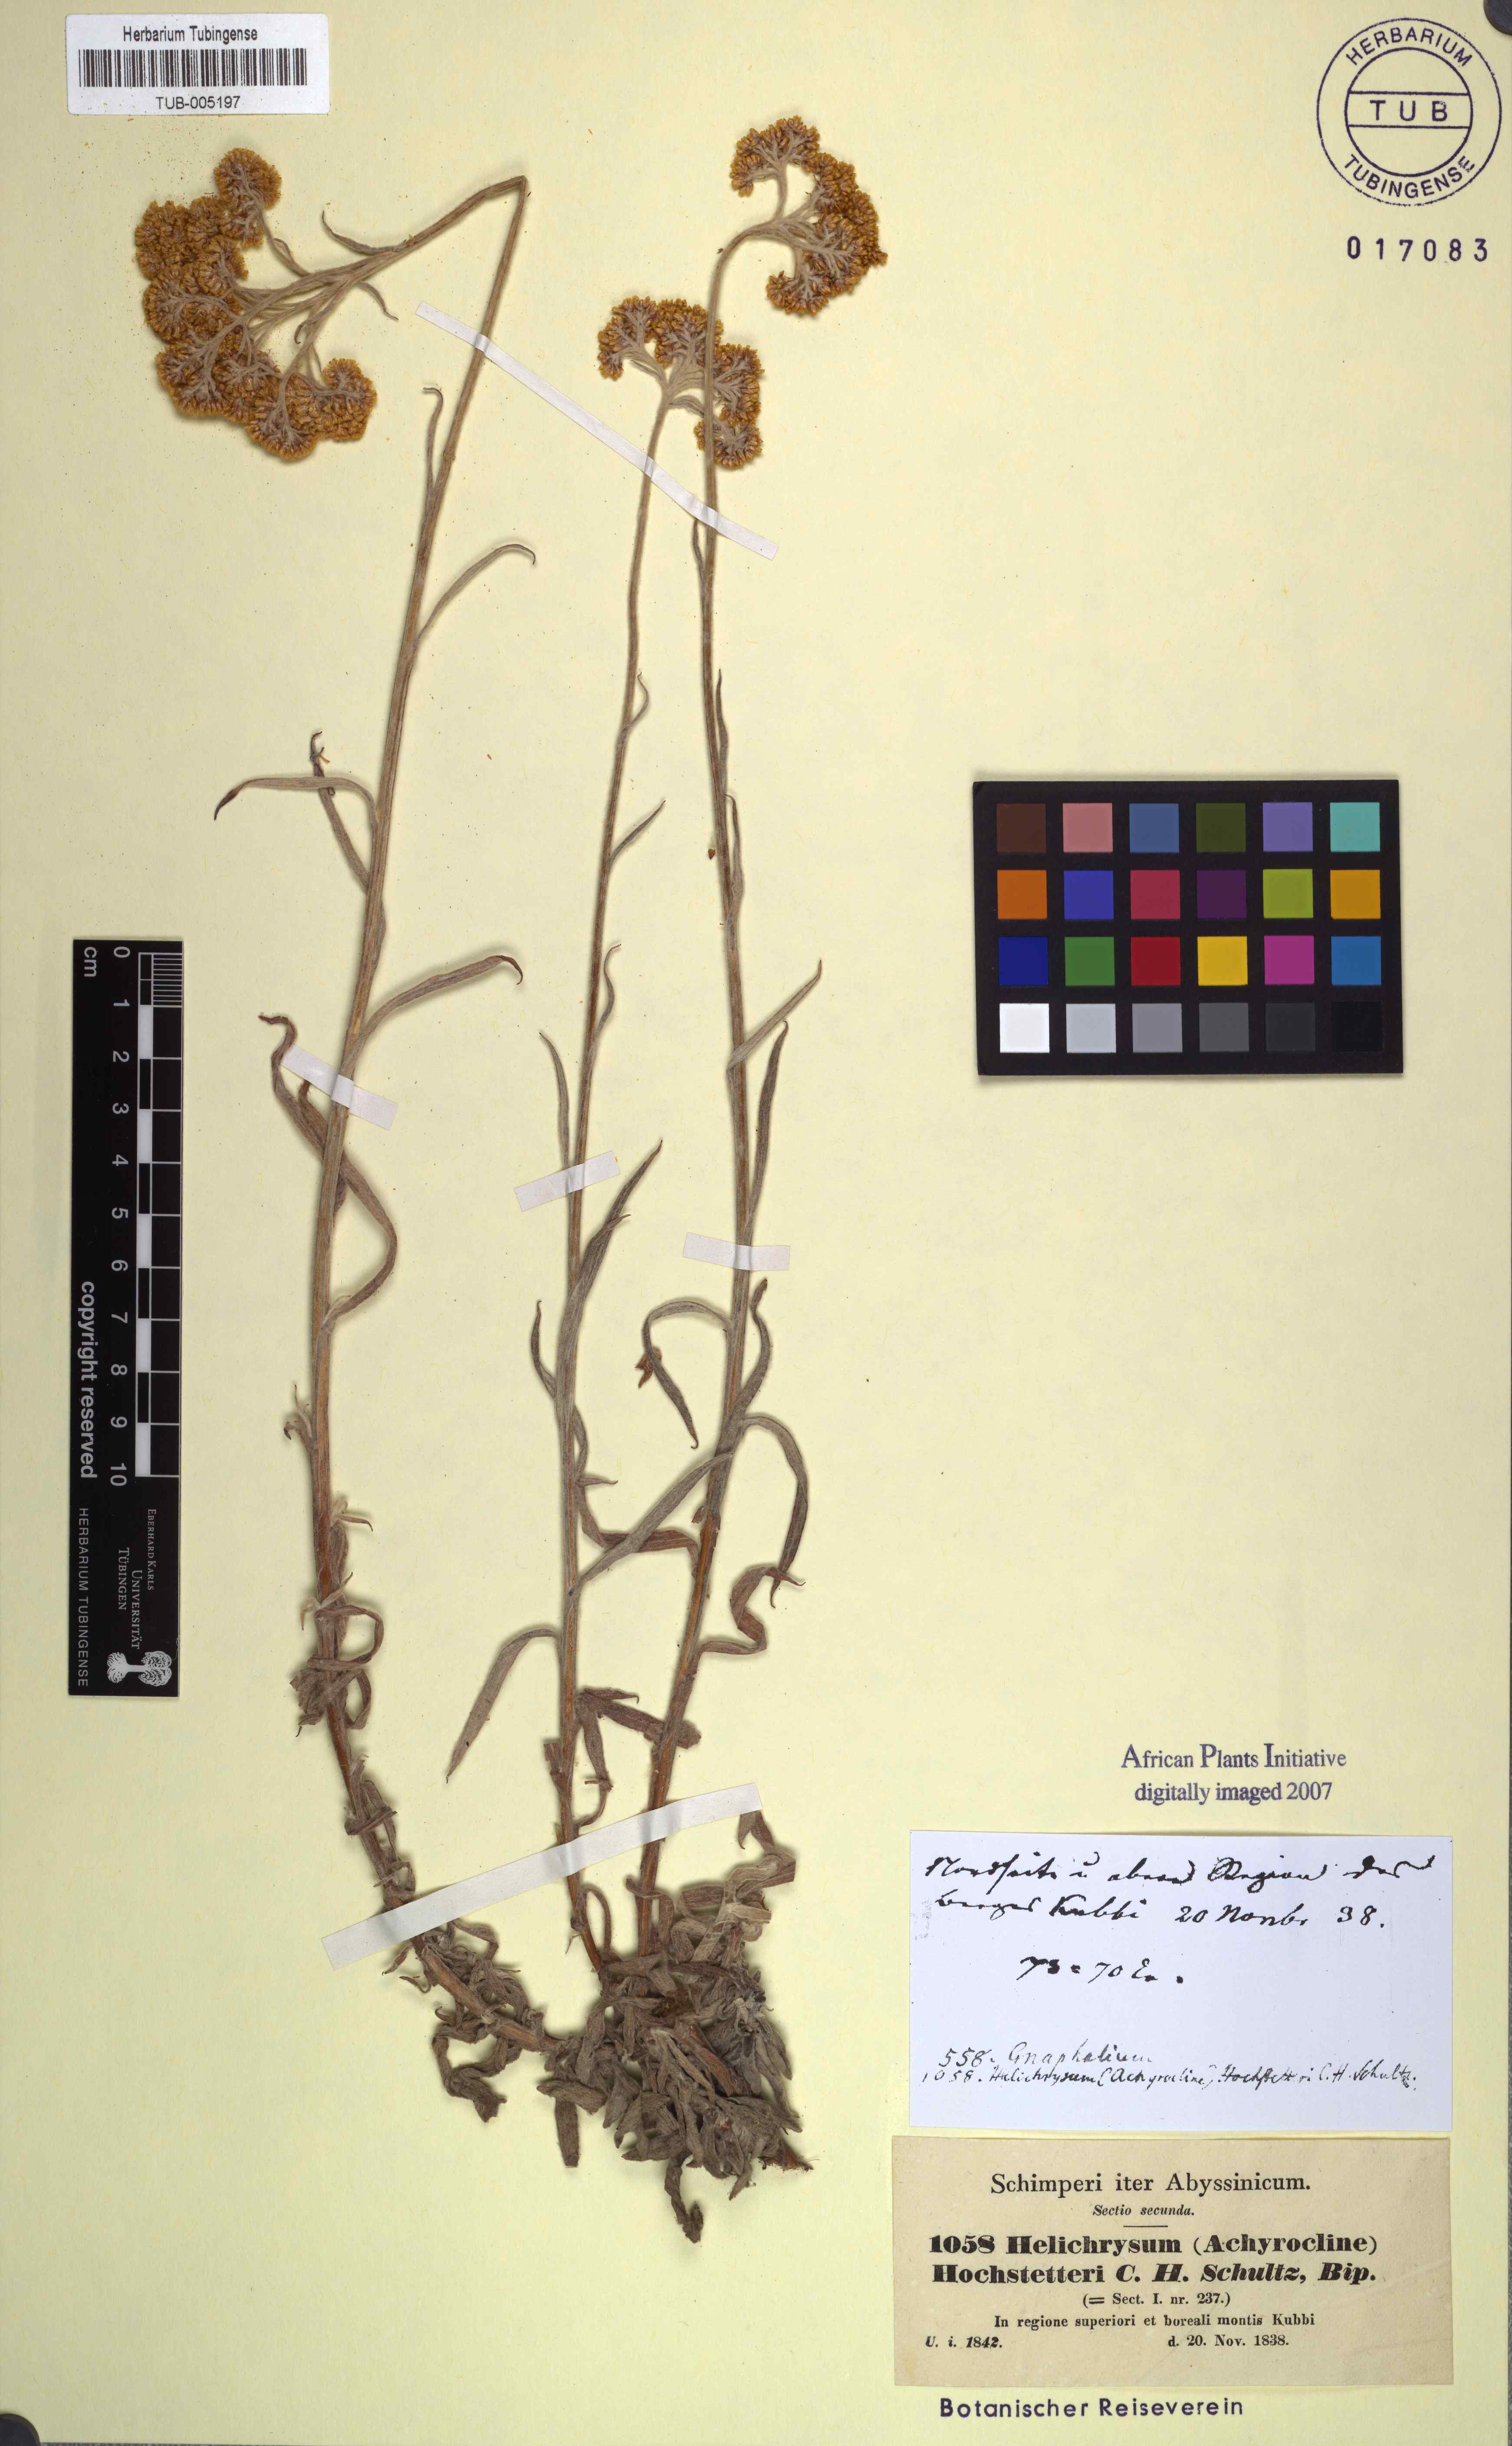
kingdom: Plantae
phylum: Tracheophyta
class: Magnoliopsida
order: Asterales
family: Asteraceae
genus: Helichrysum
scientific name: Helichrysum odoratissimum
